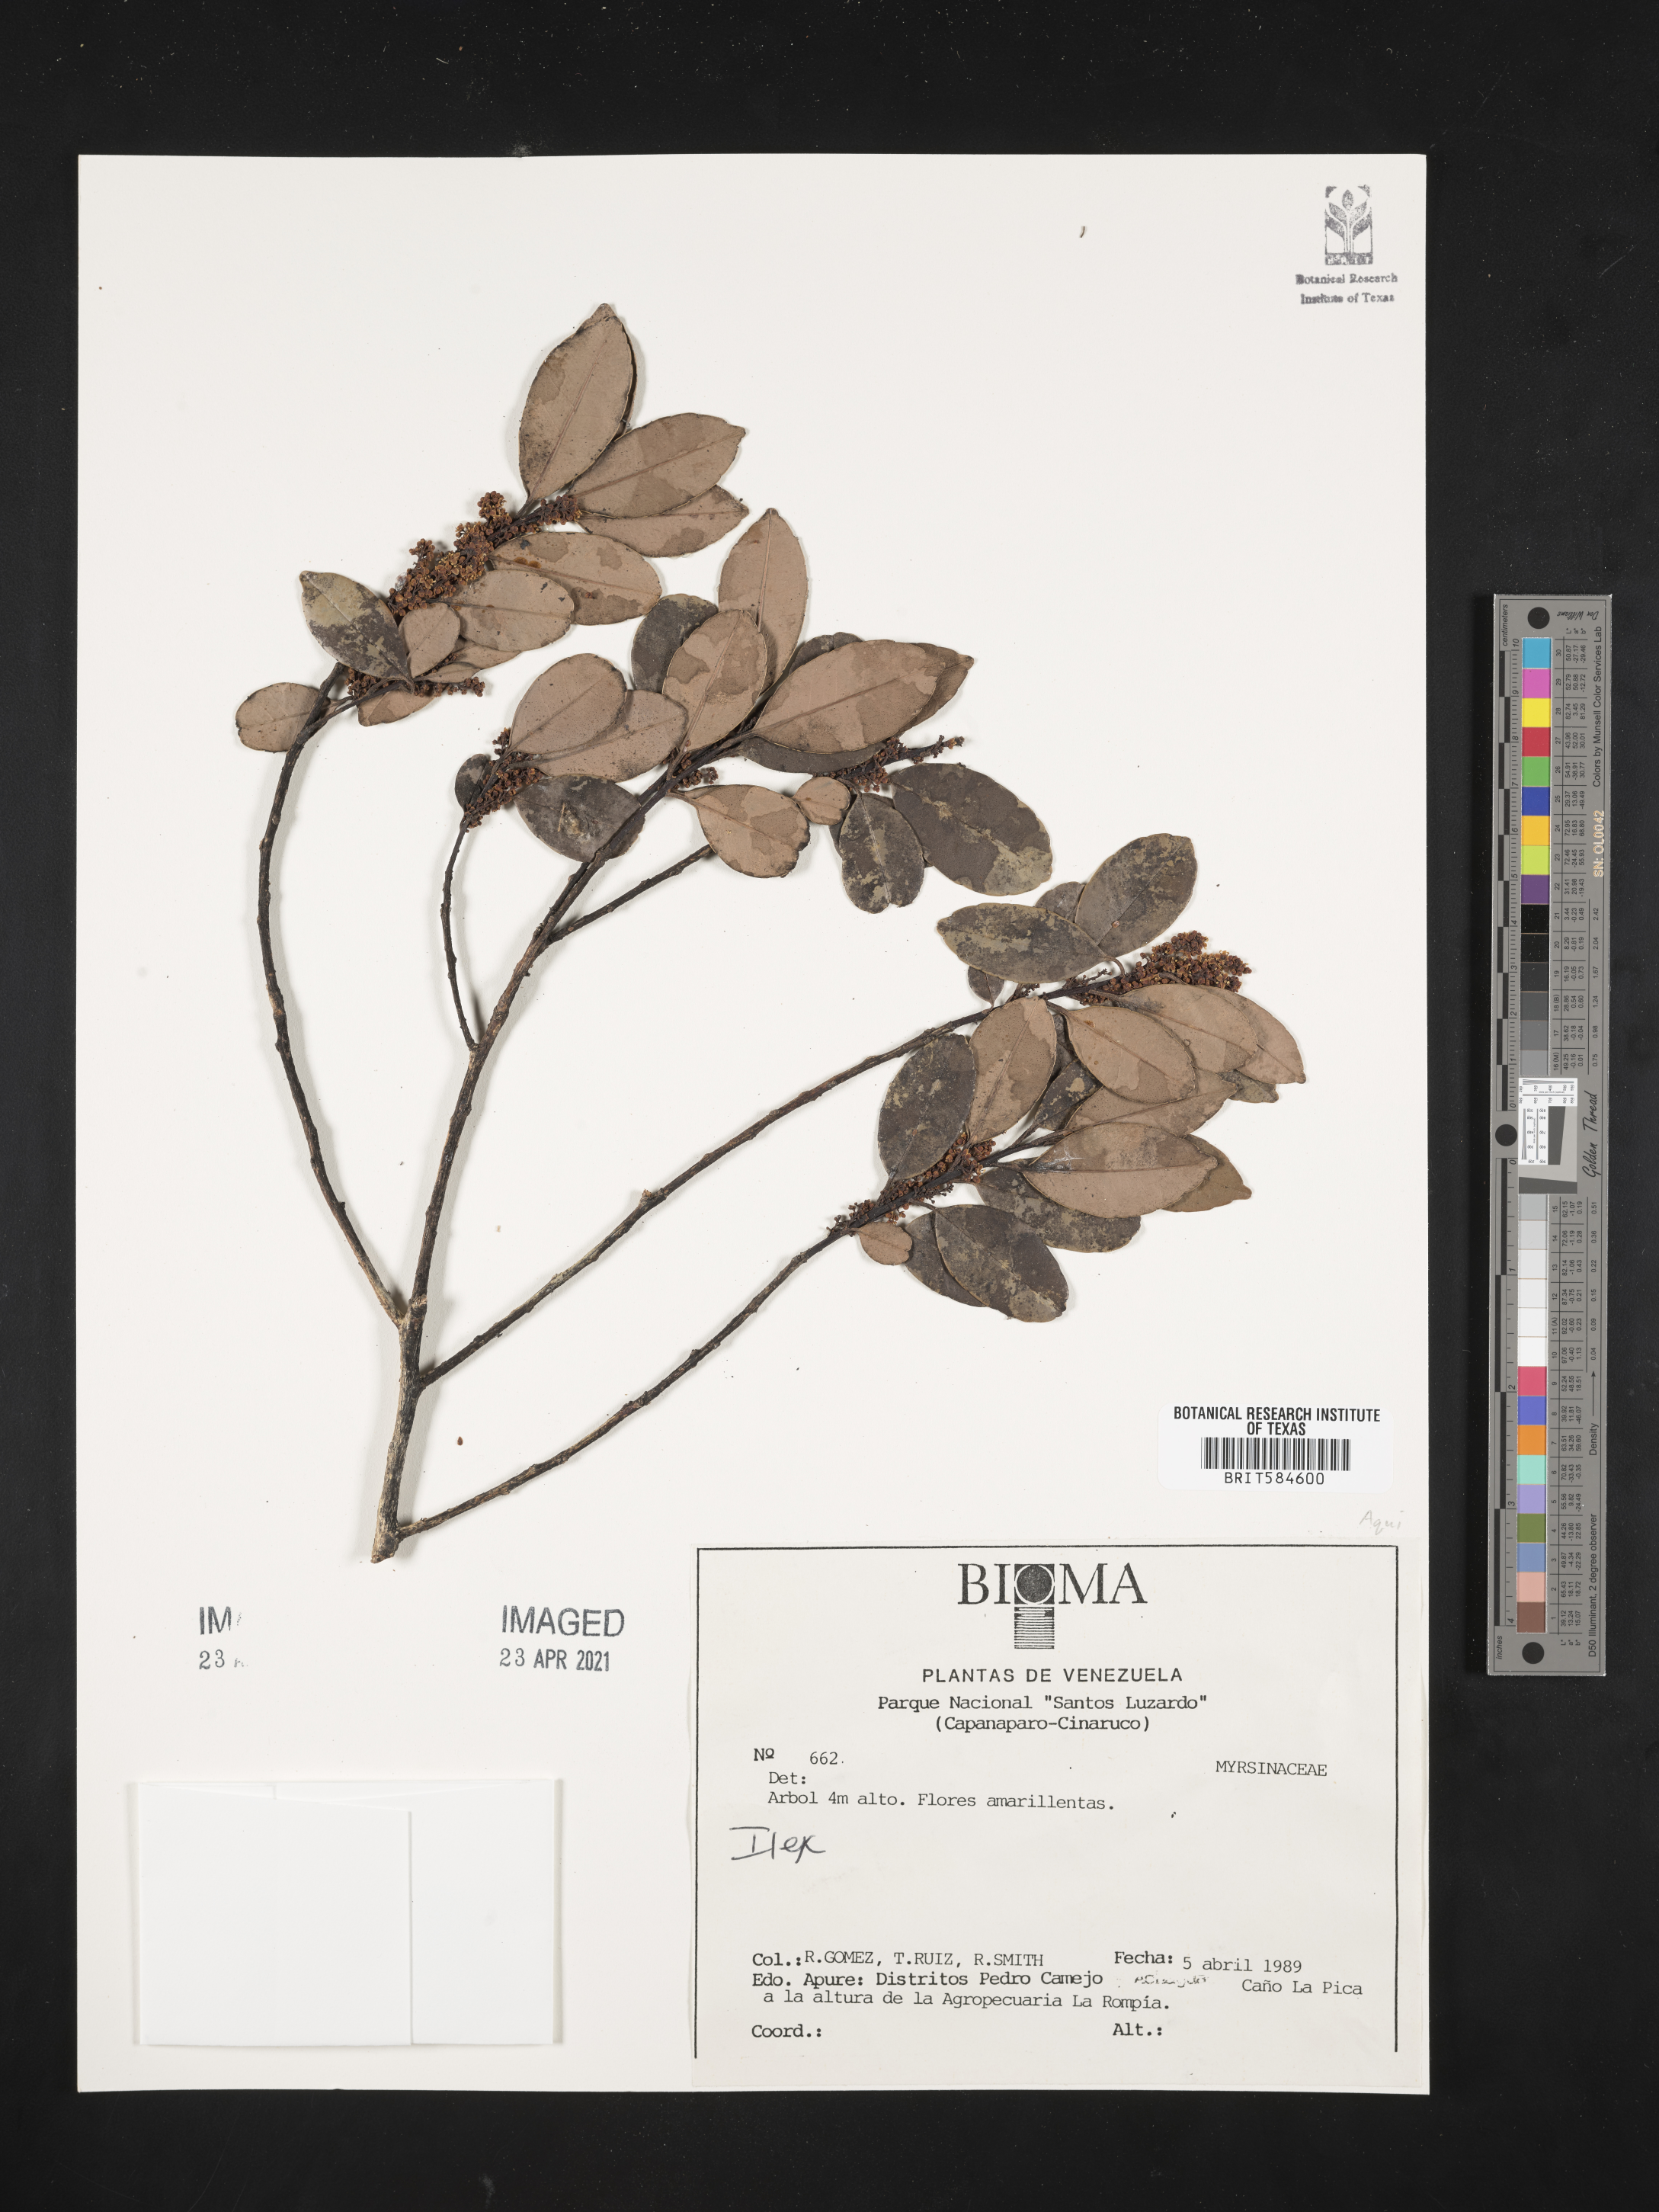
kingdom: Plantae
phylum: Tracheophyta
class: Magnoliopsida
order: Aquifoliales
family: Aquifoliaceae
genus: Ilex
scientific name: Ilex
